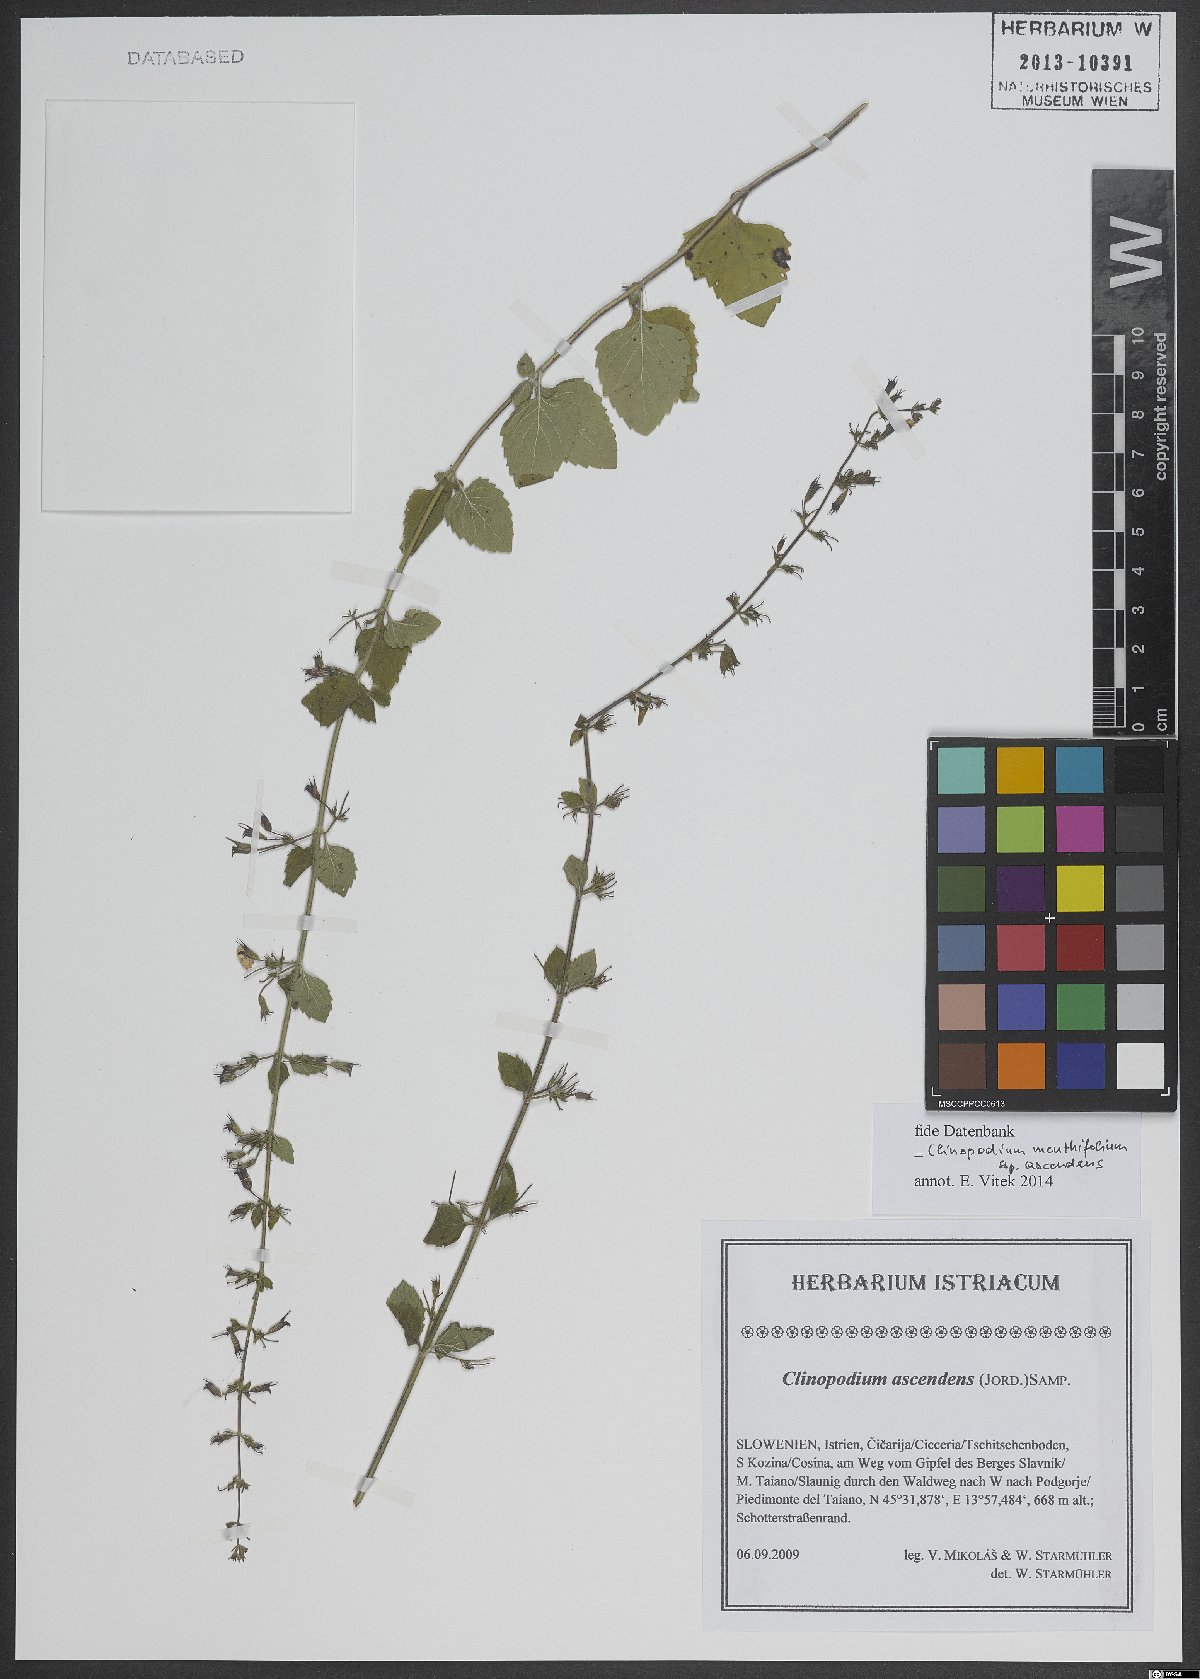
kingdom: Plantae
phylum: Tracheophyta
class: Magnoliopsida
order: Lamiales
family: Lamiaceae
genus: Clinopodium
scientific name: Clinopodium menthifolium
